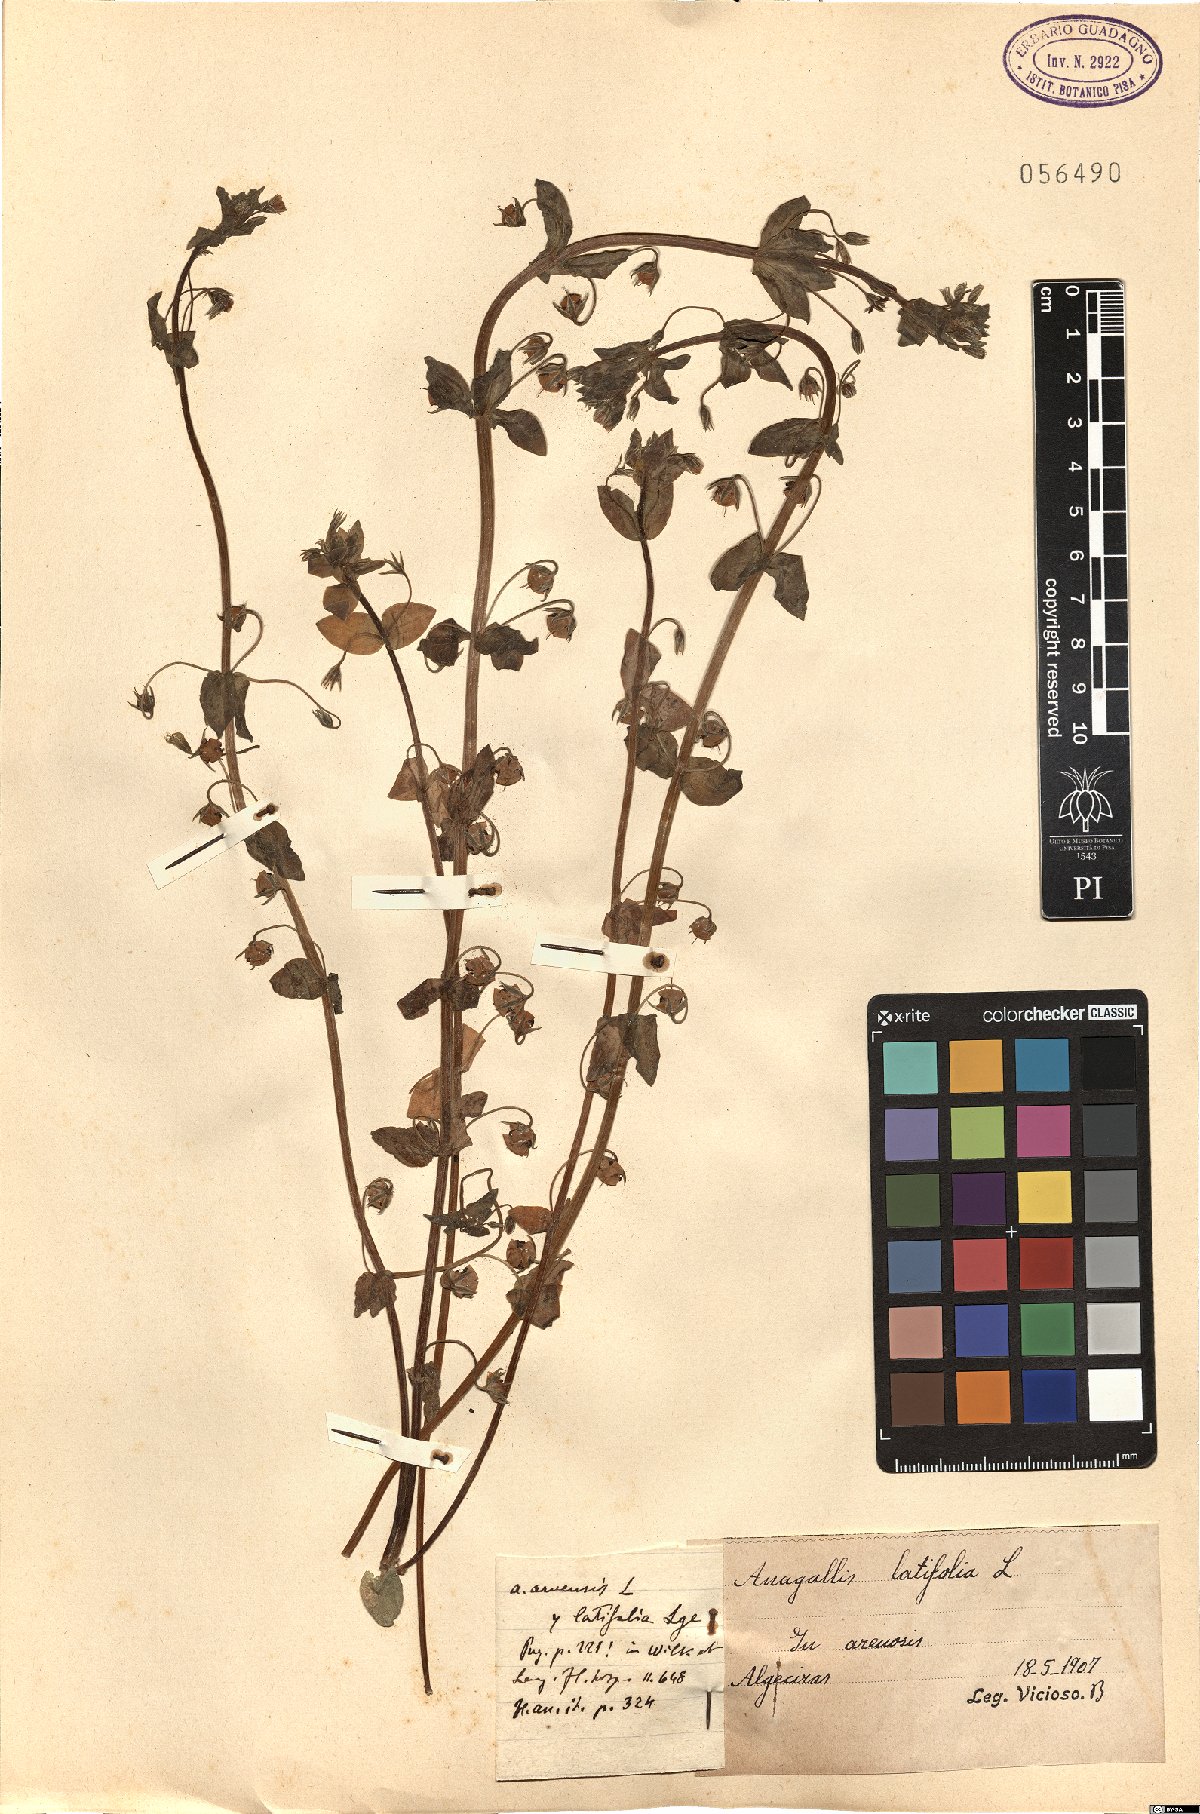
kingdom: Plantae
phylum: Tracheophyta
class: Magnoliopsida
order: Ericales
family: Primulaceae
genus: Lysimachia
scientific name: Lysimachia loeflingii
